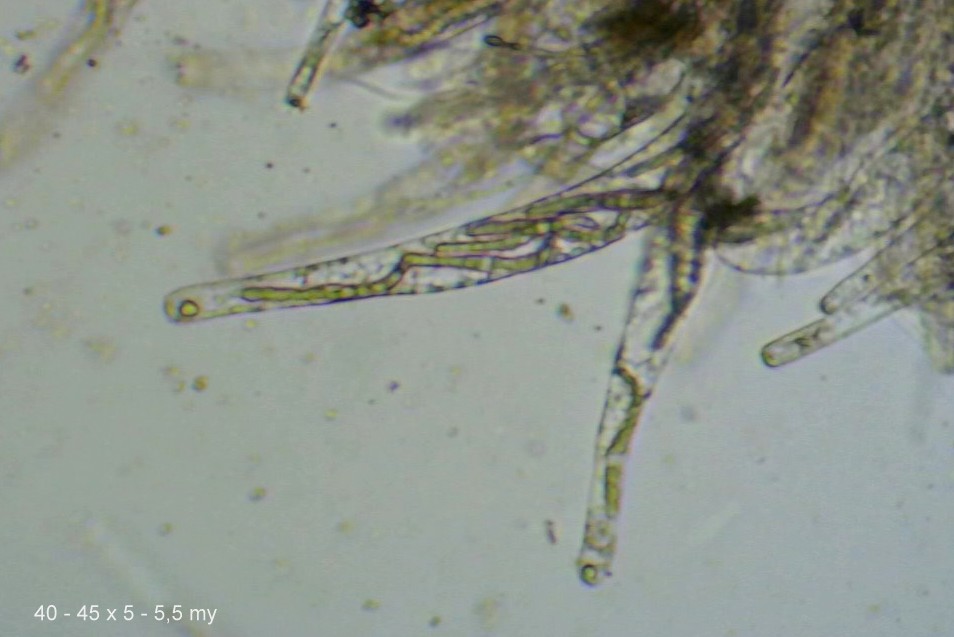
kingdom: Fungi
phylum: Ascomycota
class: Sordariomycetes
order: Sordariales
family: Lasiosphaeriaceae
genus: Lasiosphaeria
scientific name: Lasiosphaeria ovina
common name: fåre-kernesvamp
